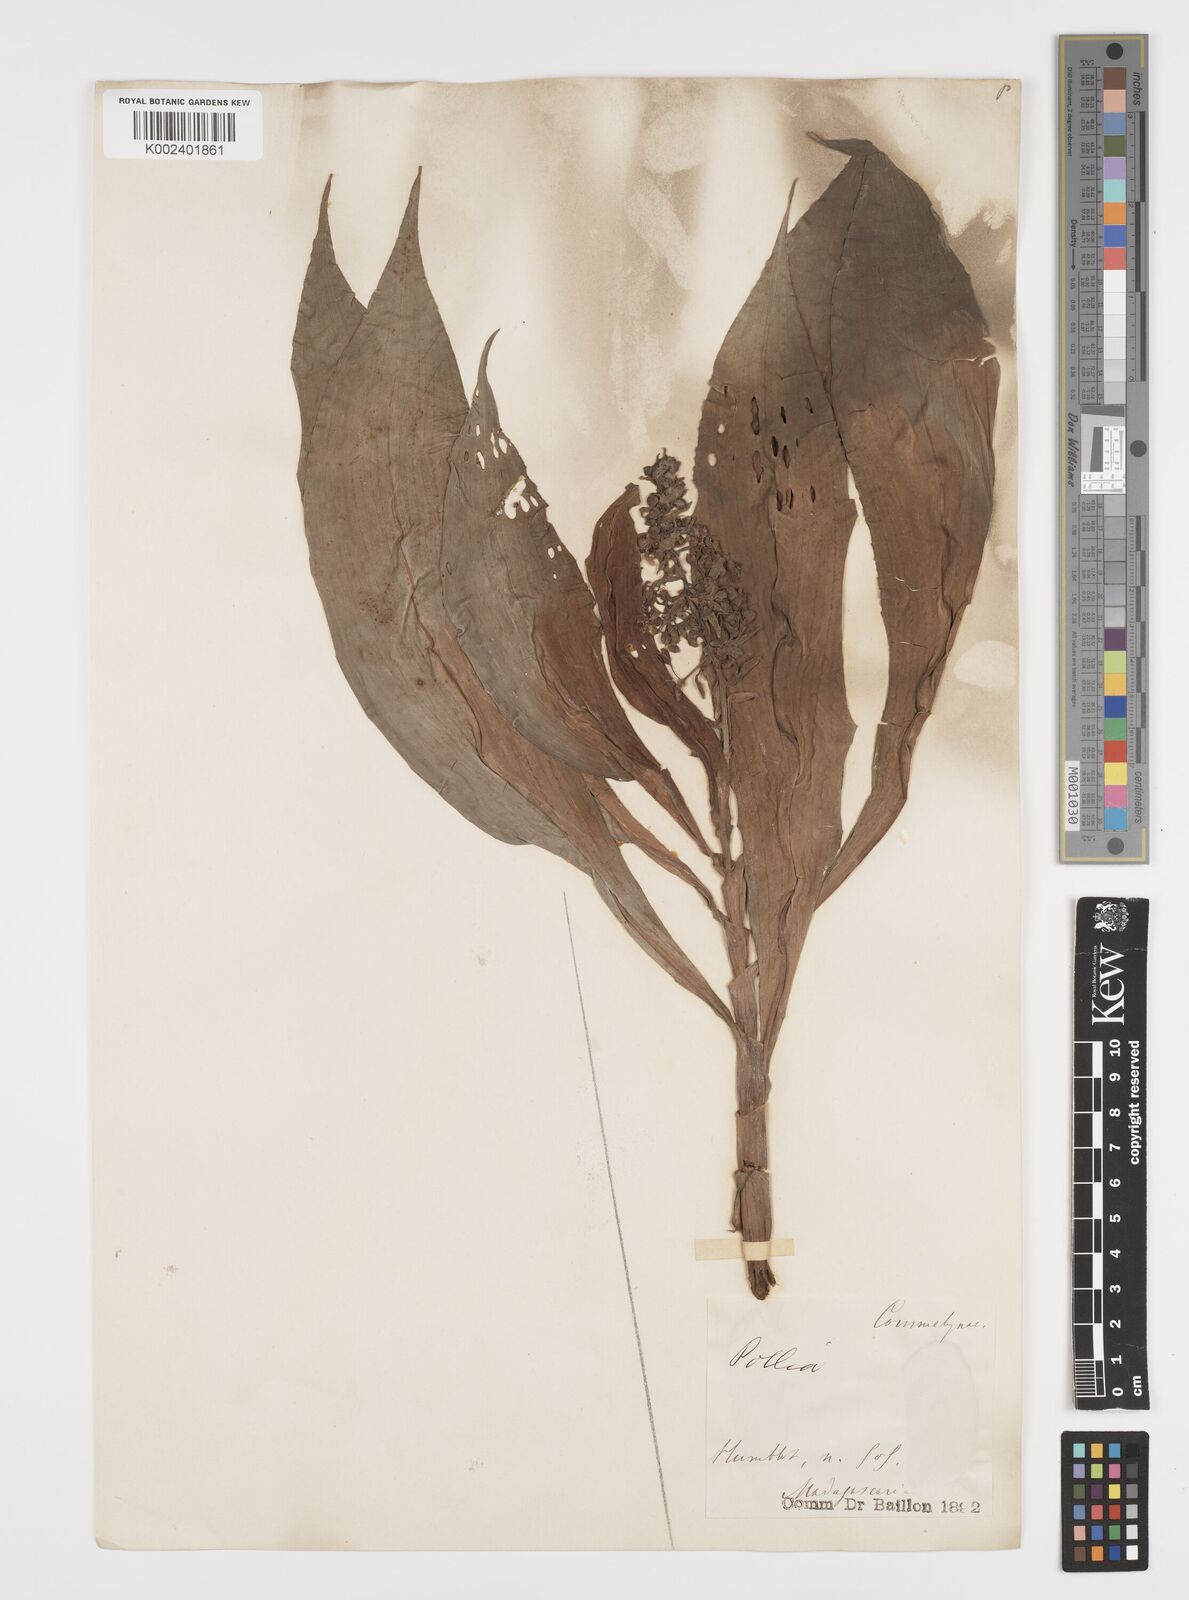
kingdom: Plantae
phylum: Tracheophyta
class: Liliopsida
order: Commelinales
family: Commelinaceae
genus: Pollia
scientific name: Pollia gracilis
